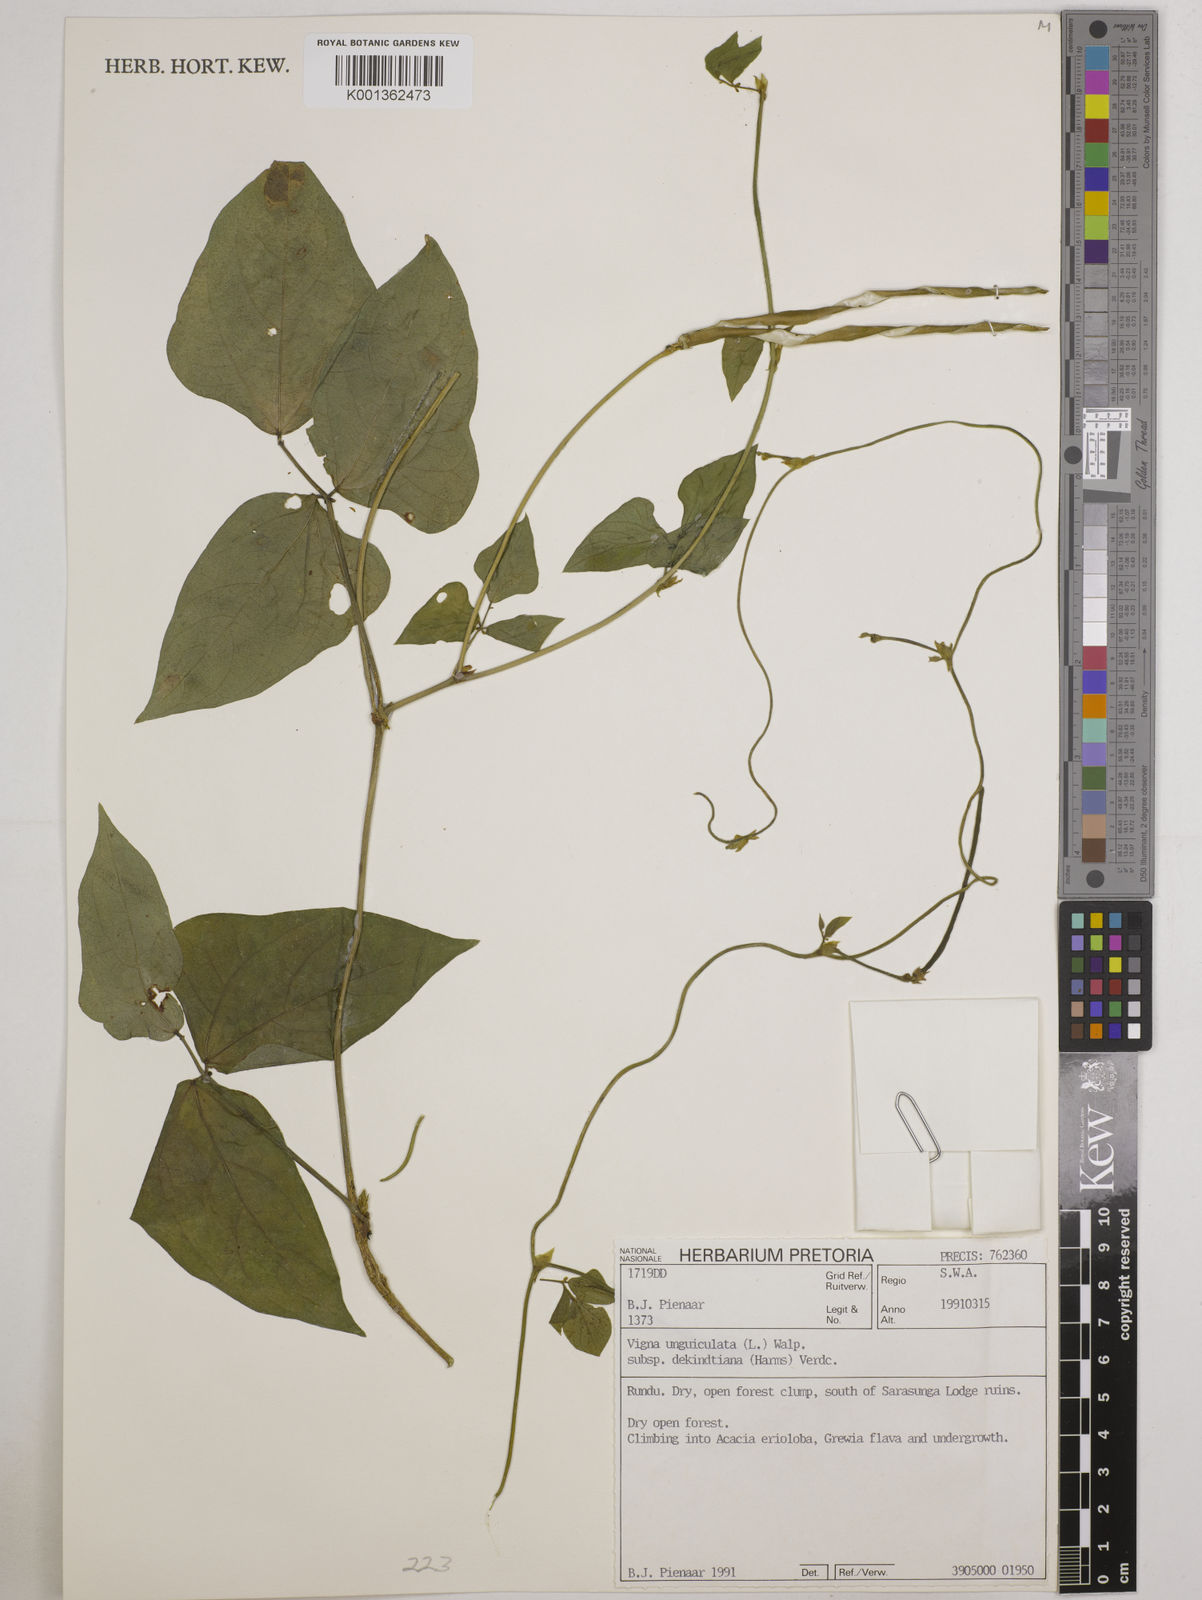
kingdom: Plantae
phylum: Tracheophyta
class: Magnoliopsida
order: Fabales
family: Fabaceae
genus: Vigna
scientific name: Vigna
